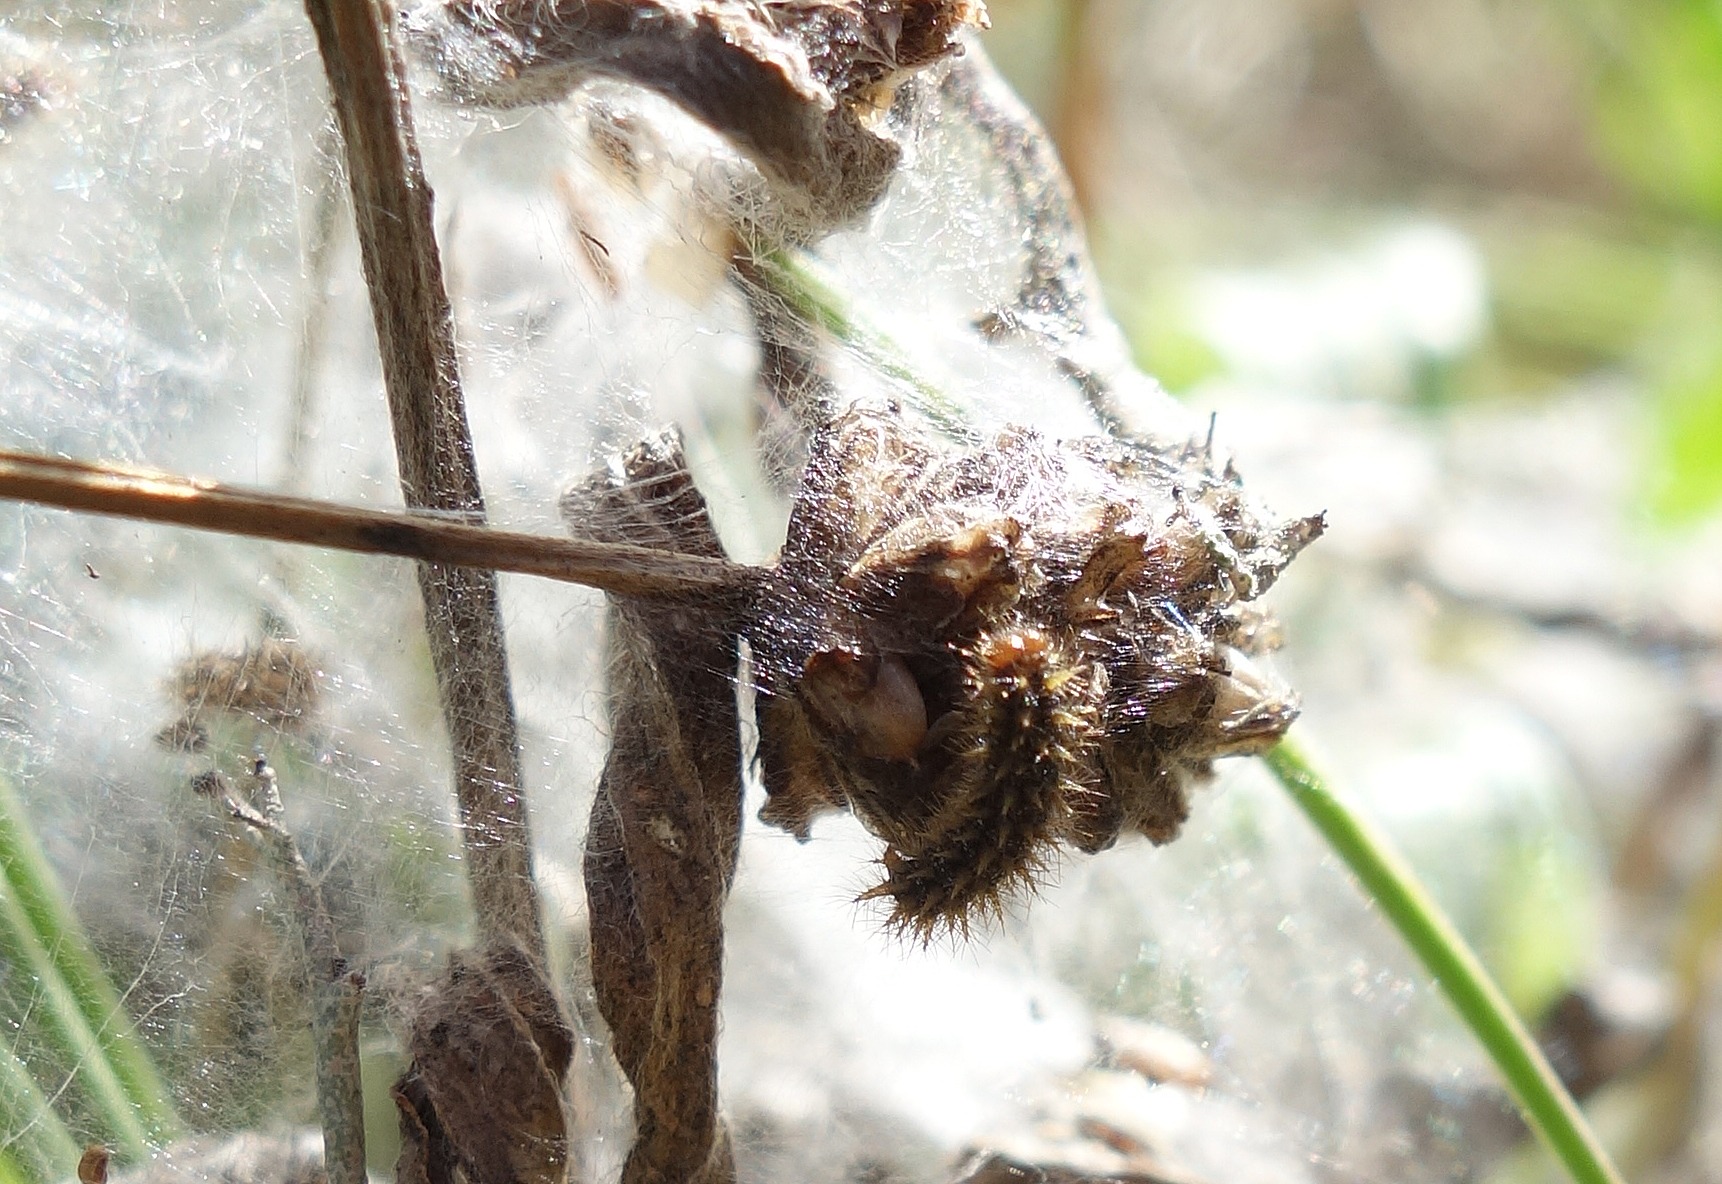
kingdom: Animalia
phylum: Arthropoda
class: Insecta
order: Lepidoptera
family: Nymphalidae
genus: Melitaea
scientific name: Melitaea cinxia
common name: Okkergul pletvinge
